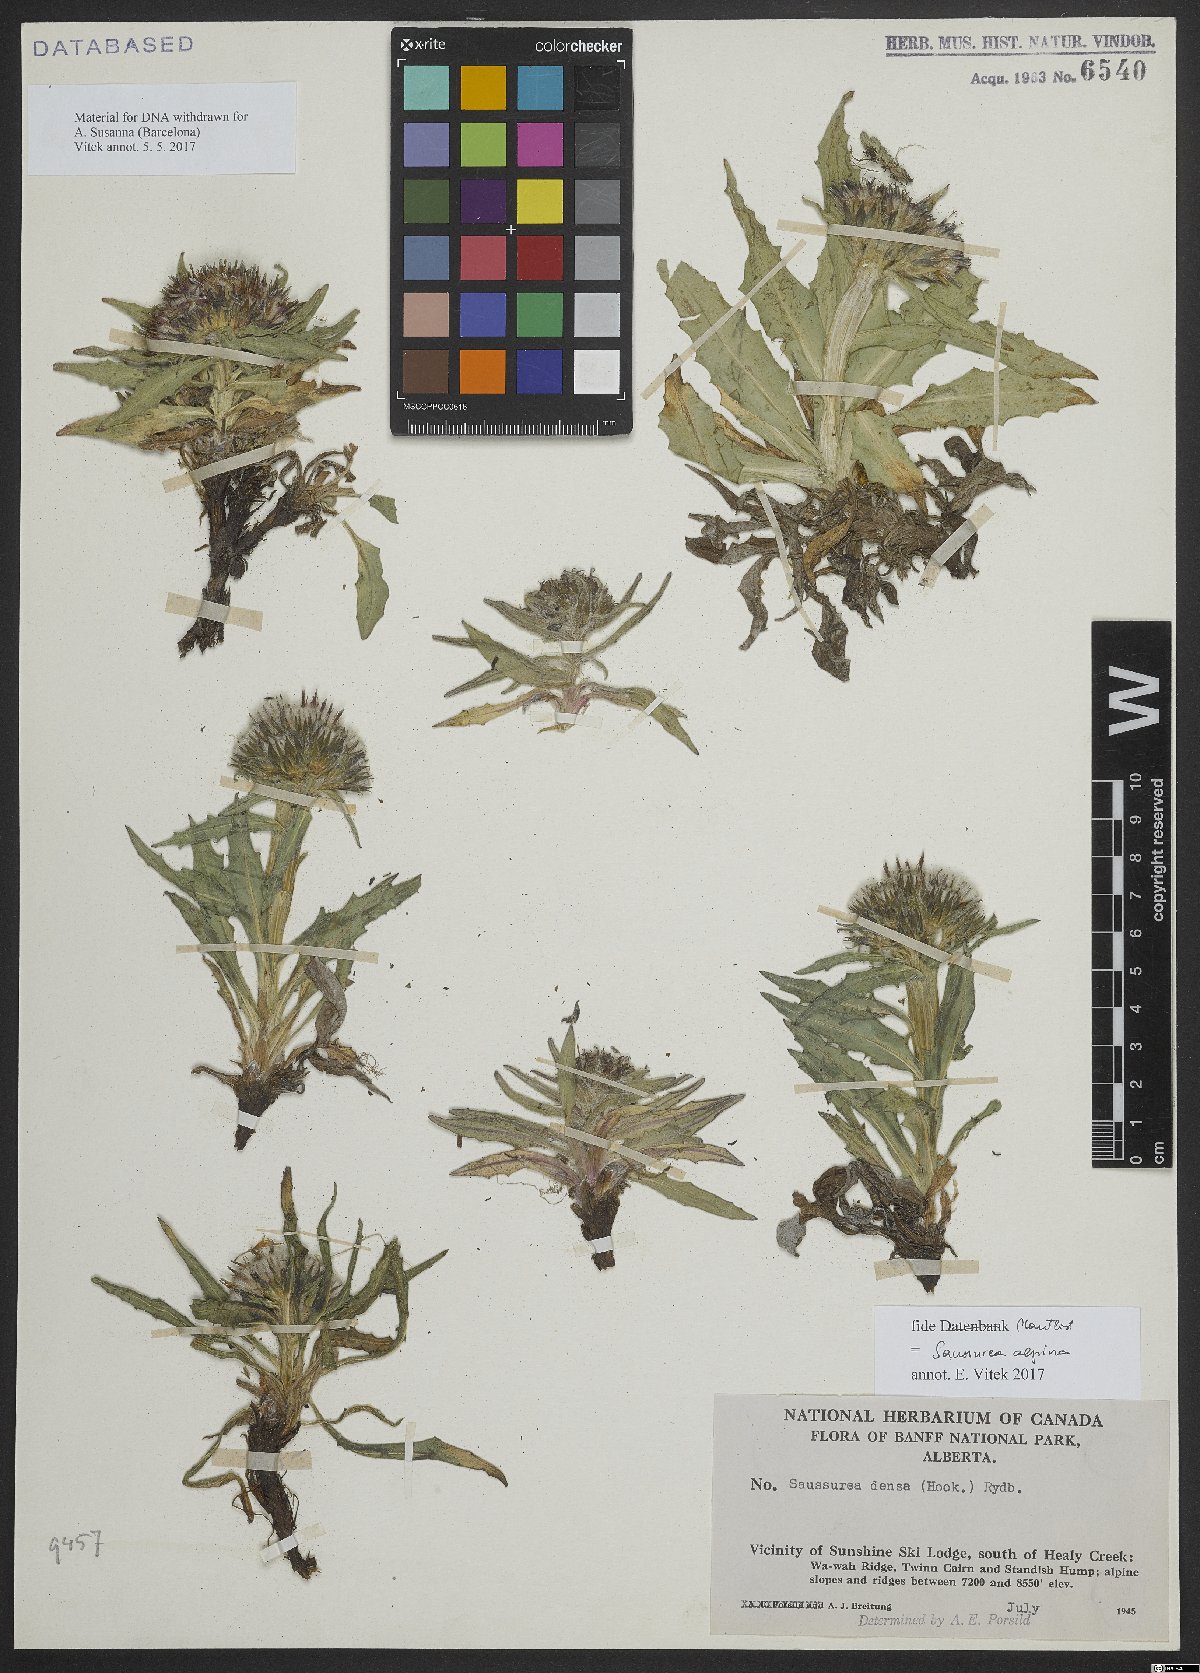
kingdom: Plantae
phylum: Tracheophyta
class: Magnoliopsida
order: Asterales
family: Asteraceae
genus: Saussurea
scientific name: Saussurea alpina
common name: Alpine saw-wort
